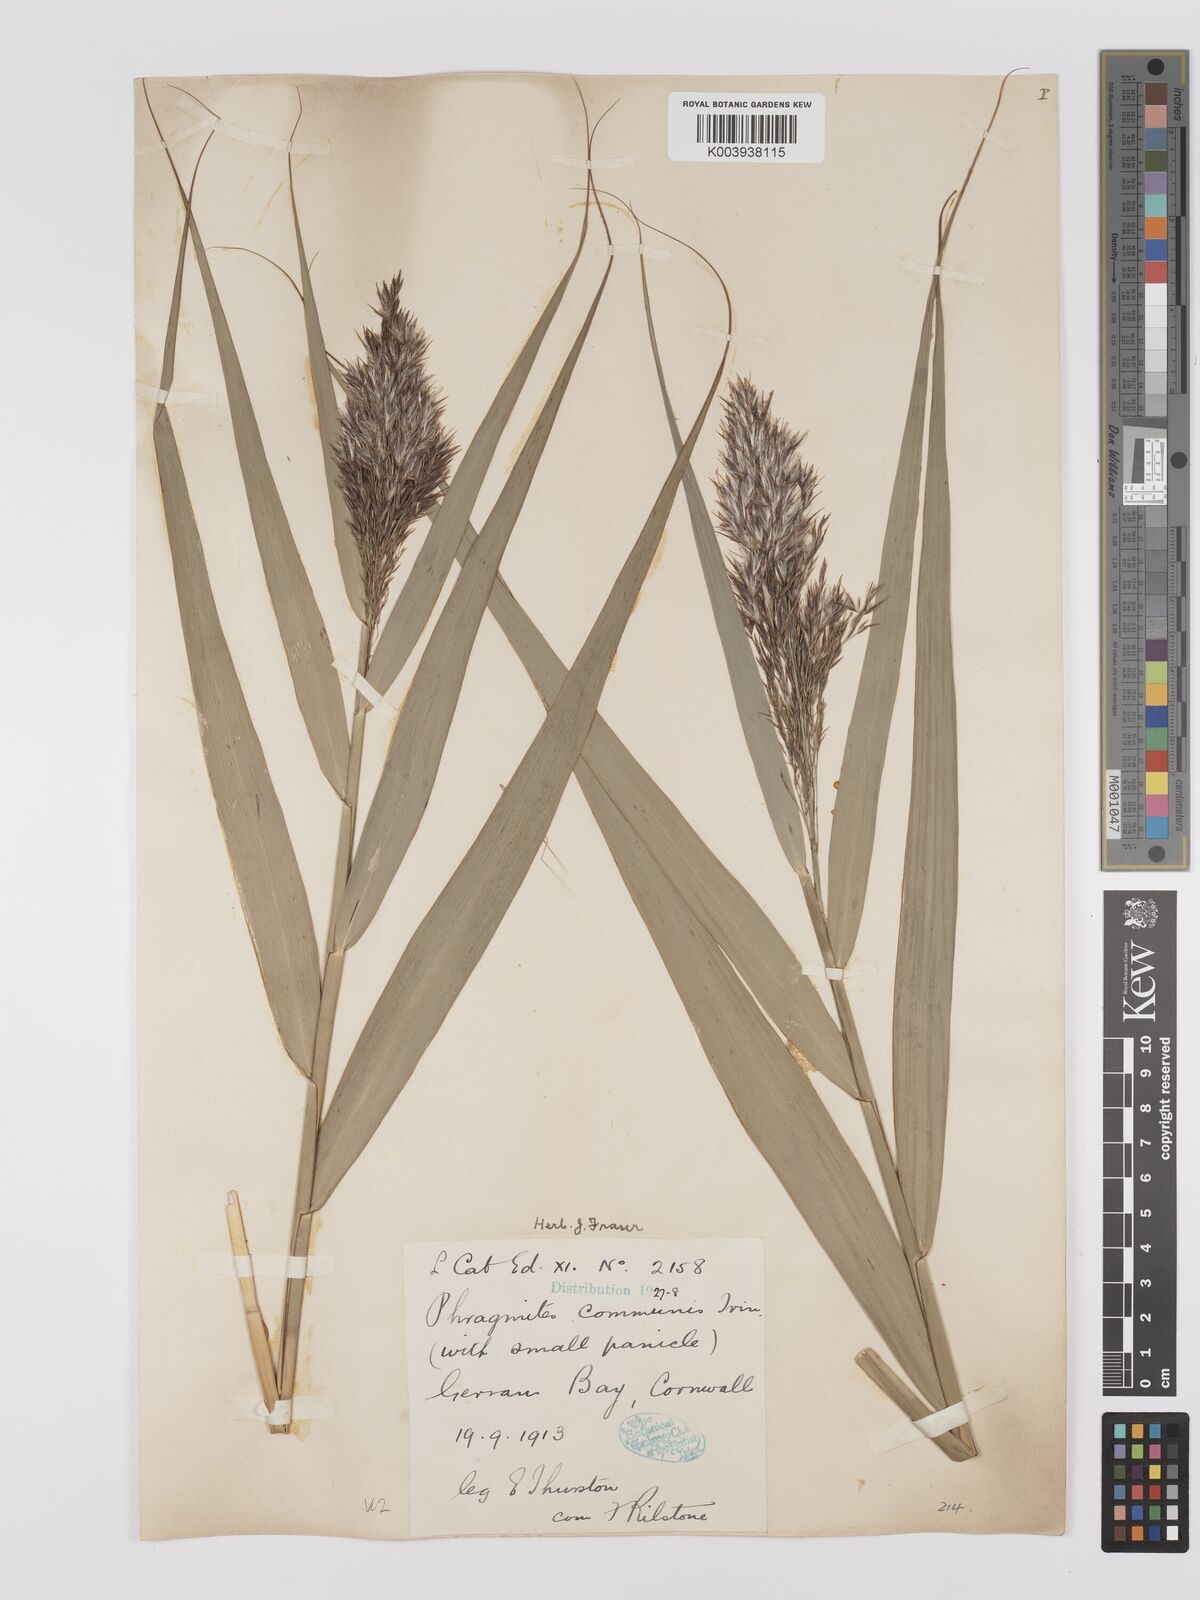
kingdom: Plantae
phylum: Tracheophyta
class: Liliopsida
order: Poales
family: Poaceae
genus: Phragmites
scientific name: Phragmites australis
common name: Common reed
